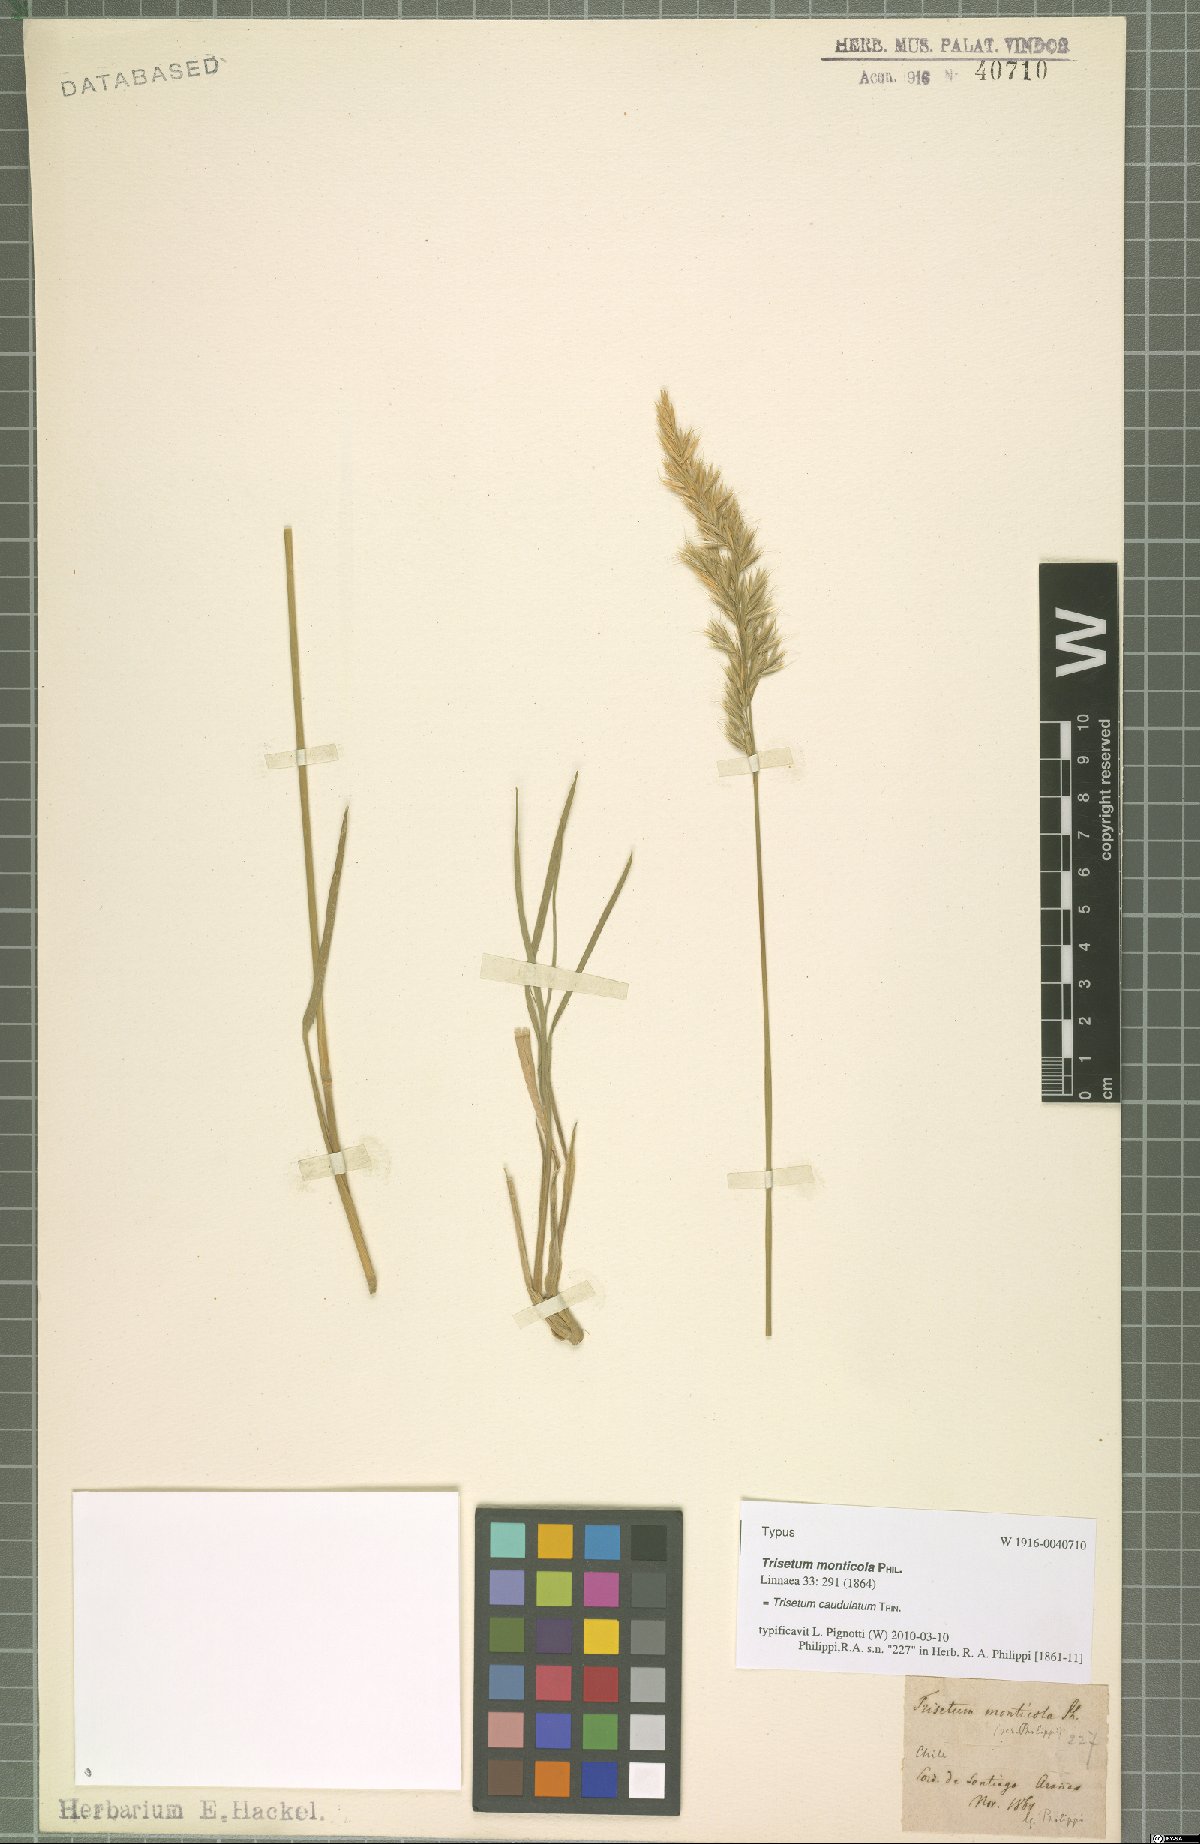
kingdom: Plantae
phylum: Tracheophyta
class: Liliopsida
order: Poales
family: Poaceae
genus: Trisetum
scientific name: Trisetum caudulatum
